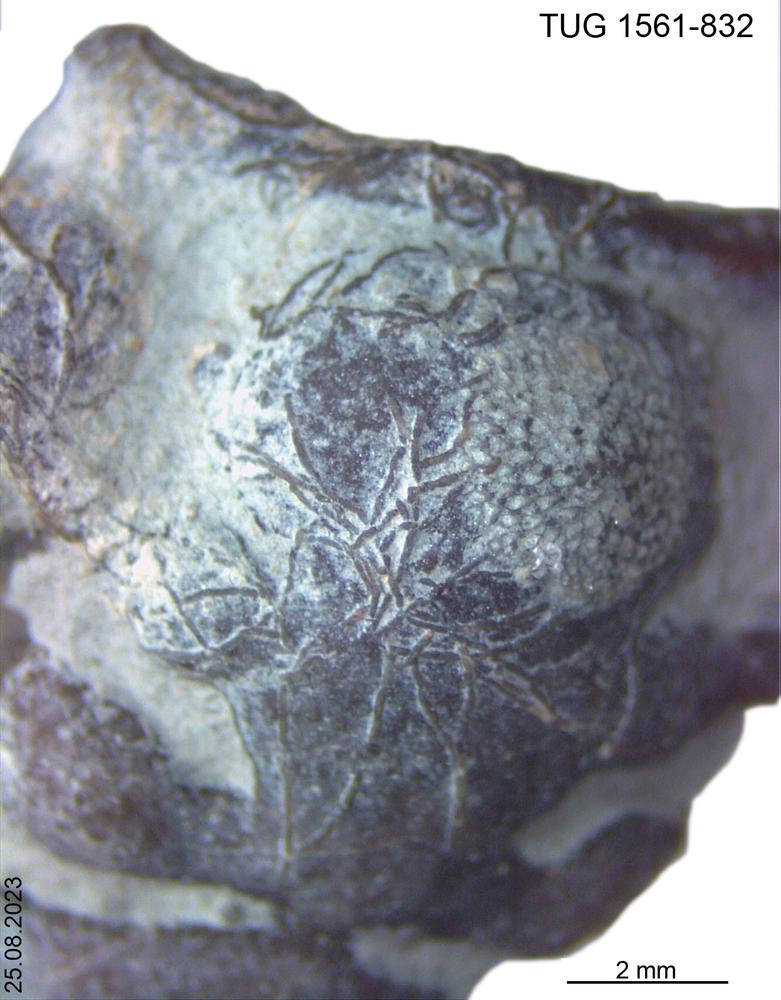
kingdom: Animalia
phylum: Arthropoda
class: Trilobita
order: Phacopida
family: Calymenidae
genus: Calymene
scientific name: Calymene
